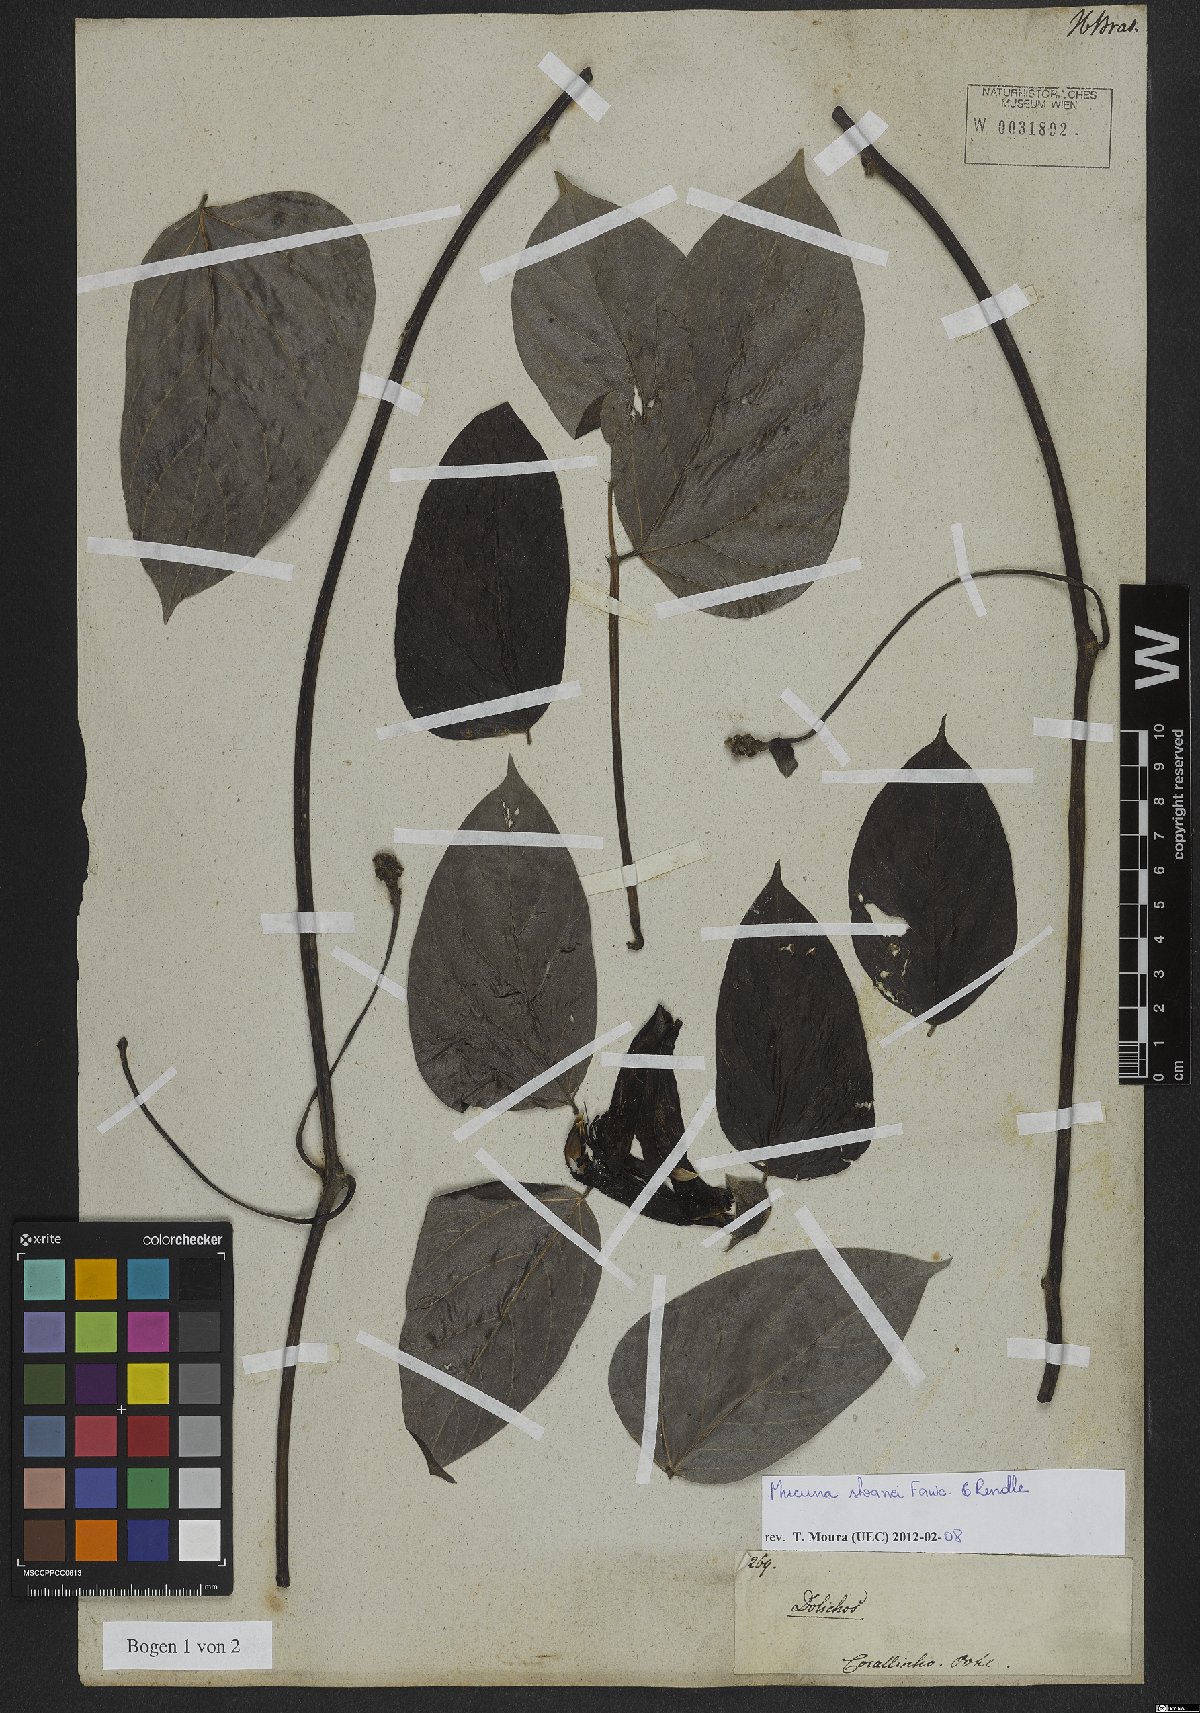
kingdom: Plantae
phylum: Tracheophyta
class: Magnoliopsida
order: Fabales
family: Fabaceae
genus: Mucuna
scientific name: Mucuna sloanei
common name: Horse-eye bean
